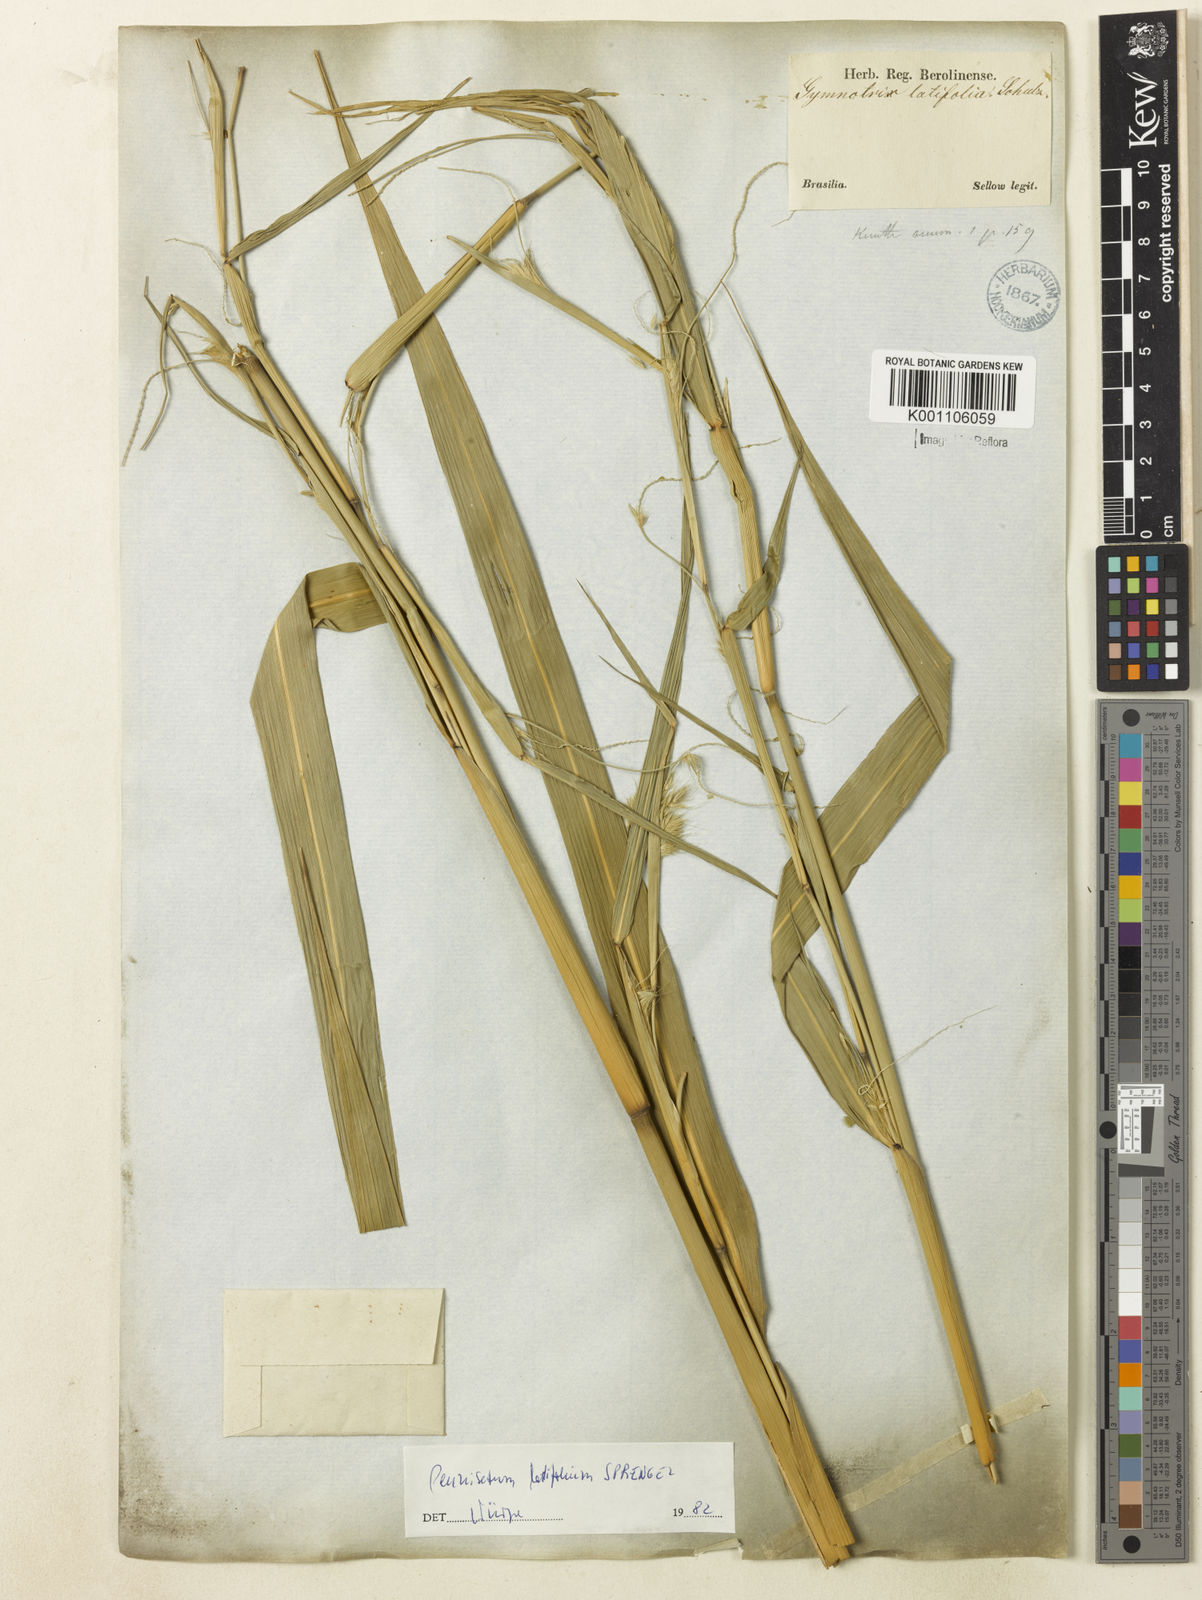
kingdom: Plantae
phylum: Tracheophyta
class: Liliopsida
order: Poales
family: Poaceae
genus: Cenchrus
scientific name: Cenchrus latifolius
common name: Sandbur
